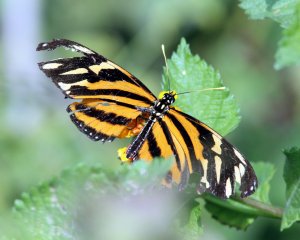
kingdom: Animalia
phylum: Arthropoda
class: Insecta
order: Lepidoptera
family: Nymphalidae
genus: Eueides
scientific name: Eueides isabella
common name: Isabella's Heliconian
